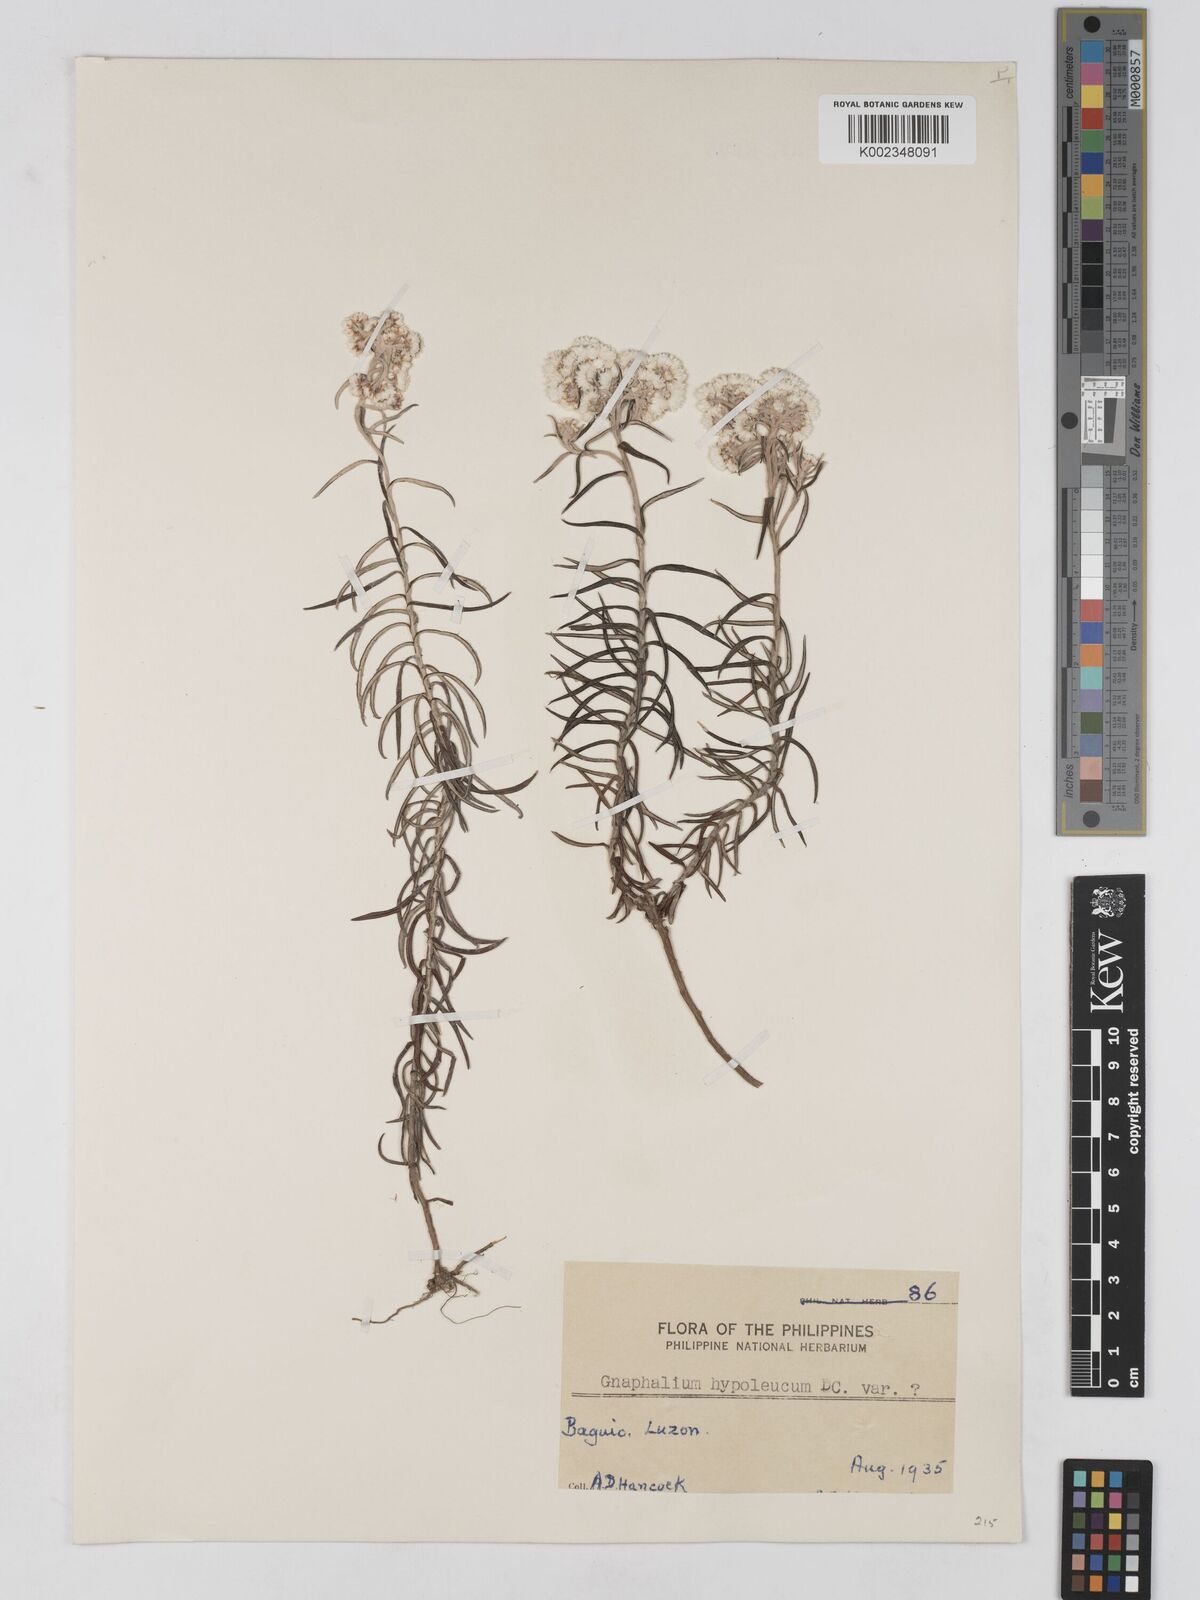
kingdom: Plantae
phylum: Tracheophyta
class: Magnoliopsida
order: Asterales
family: Asteraceae
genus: Anaphalis
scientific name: Anaphalis contorta
